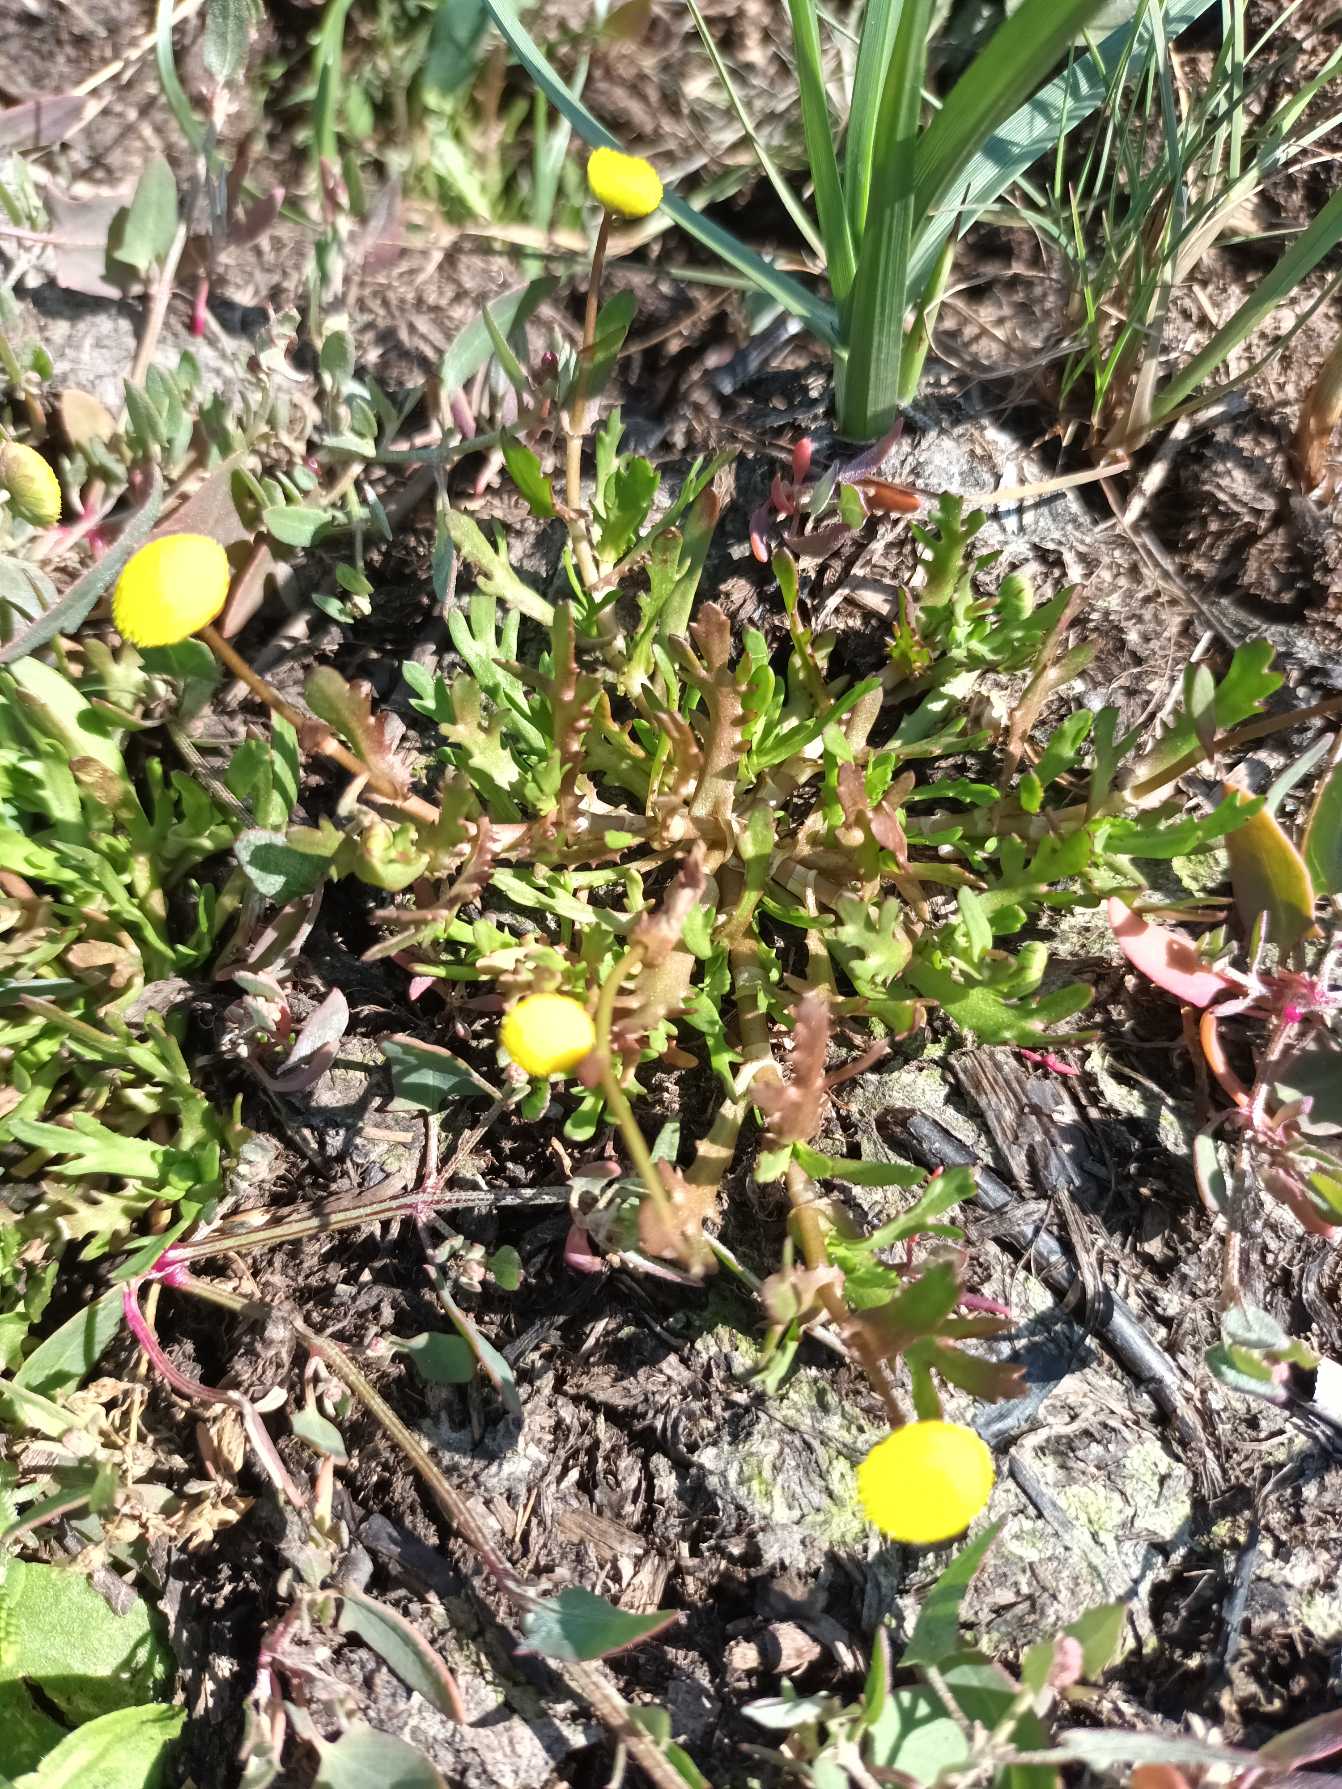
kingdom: Plantae
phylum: Tracheophyta
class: Magnoliopsida
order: Asterales
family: Asteraceae
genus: Cotula
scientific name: Cotula coronopifolia
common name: Firkløft
